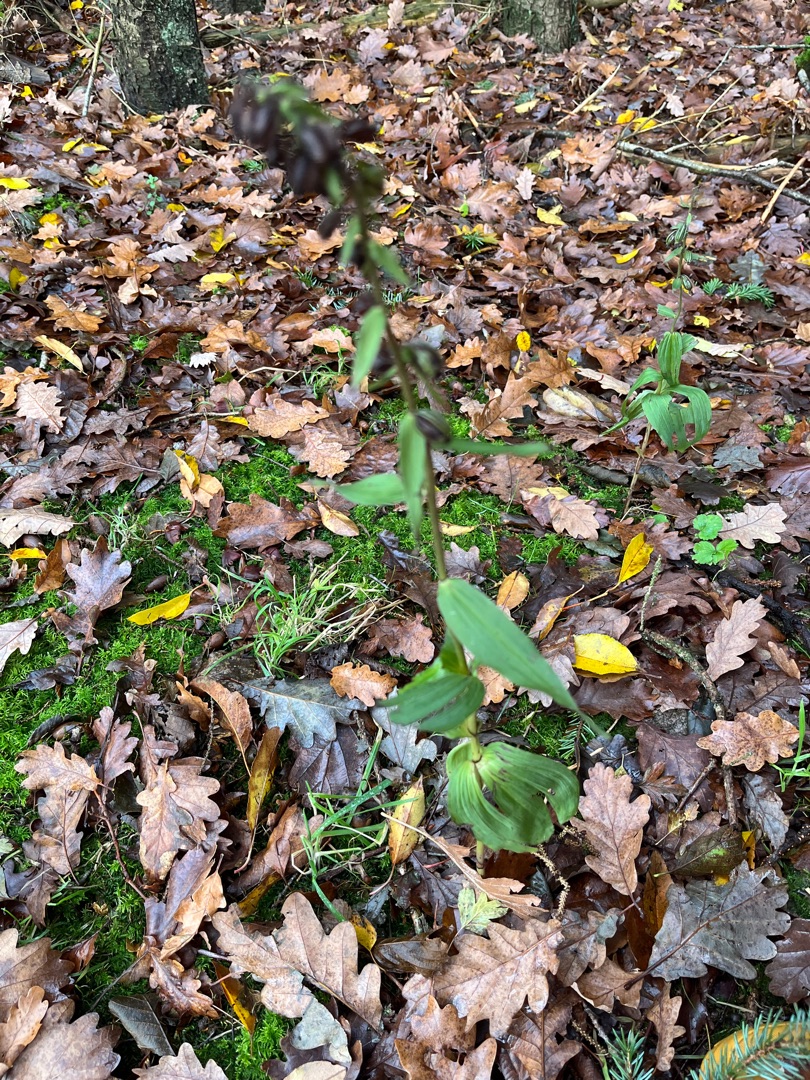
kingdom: Plantae
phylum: Tracheophyta
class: Liliopsida
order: Asparagales
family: Orchidaceae
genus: Epipactis
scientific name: Epipactis helleborine
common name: Skov-hullæbe
